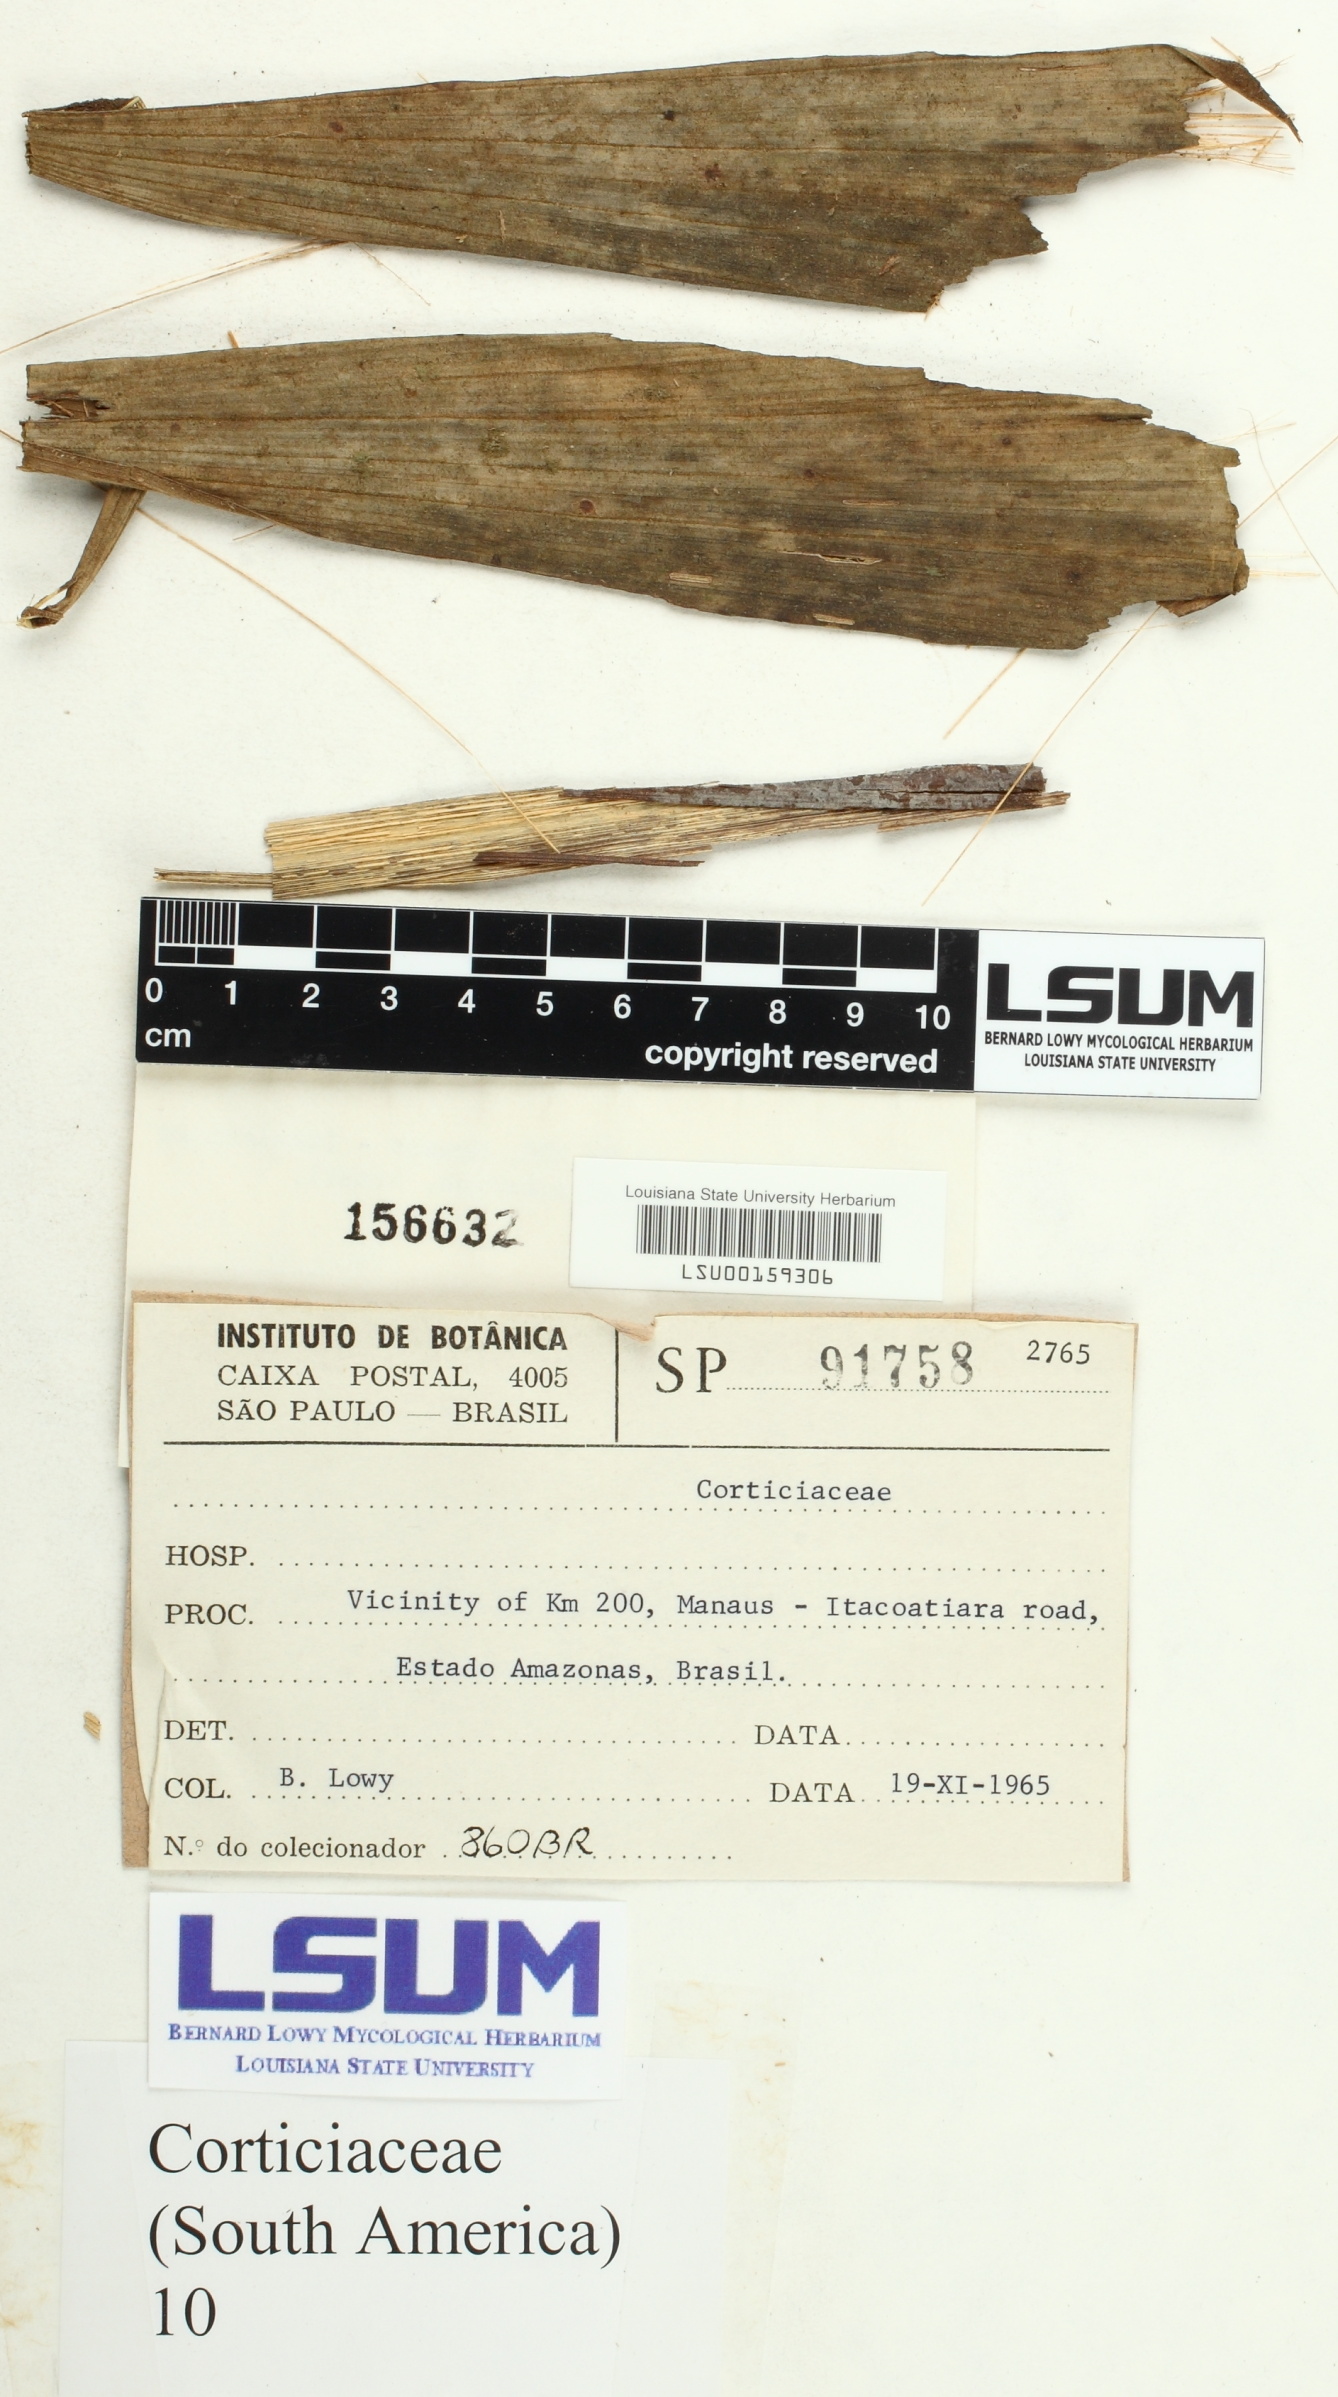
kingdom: Fungi
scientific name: Fungi
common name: Fungi
